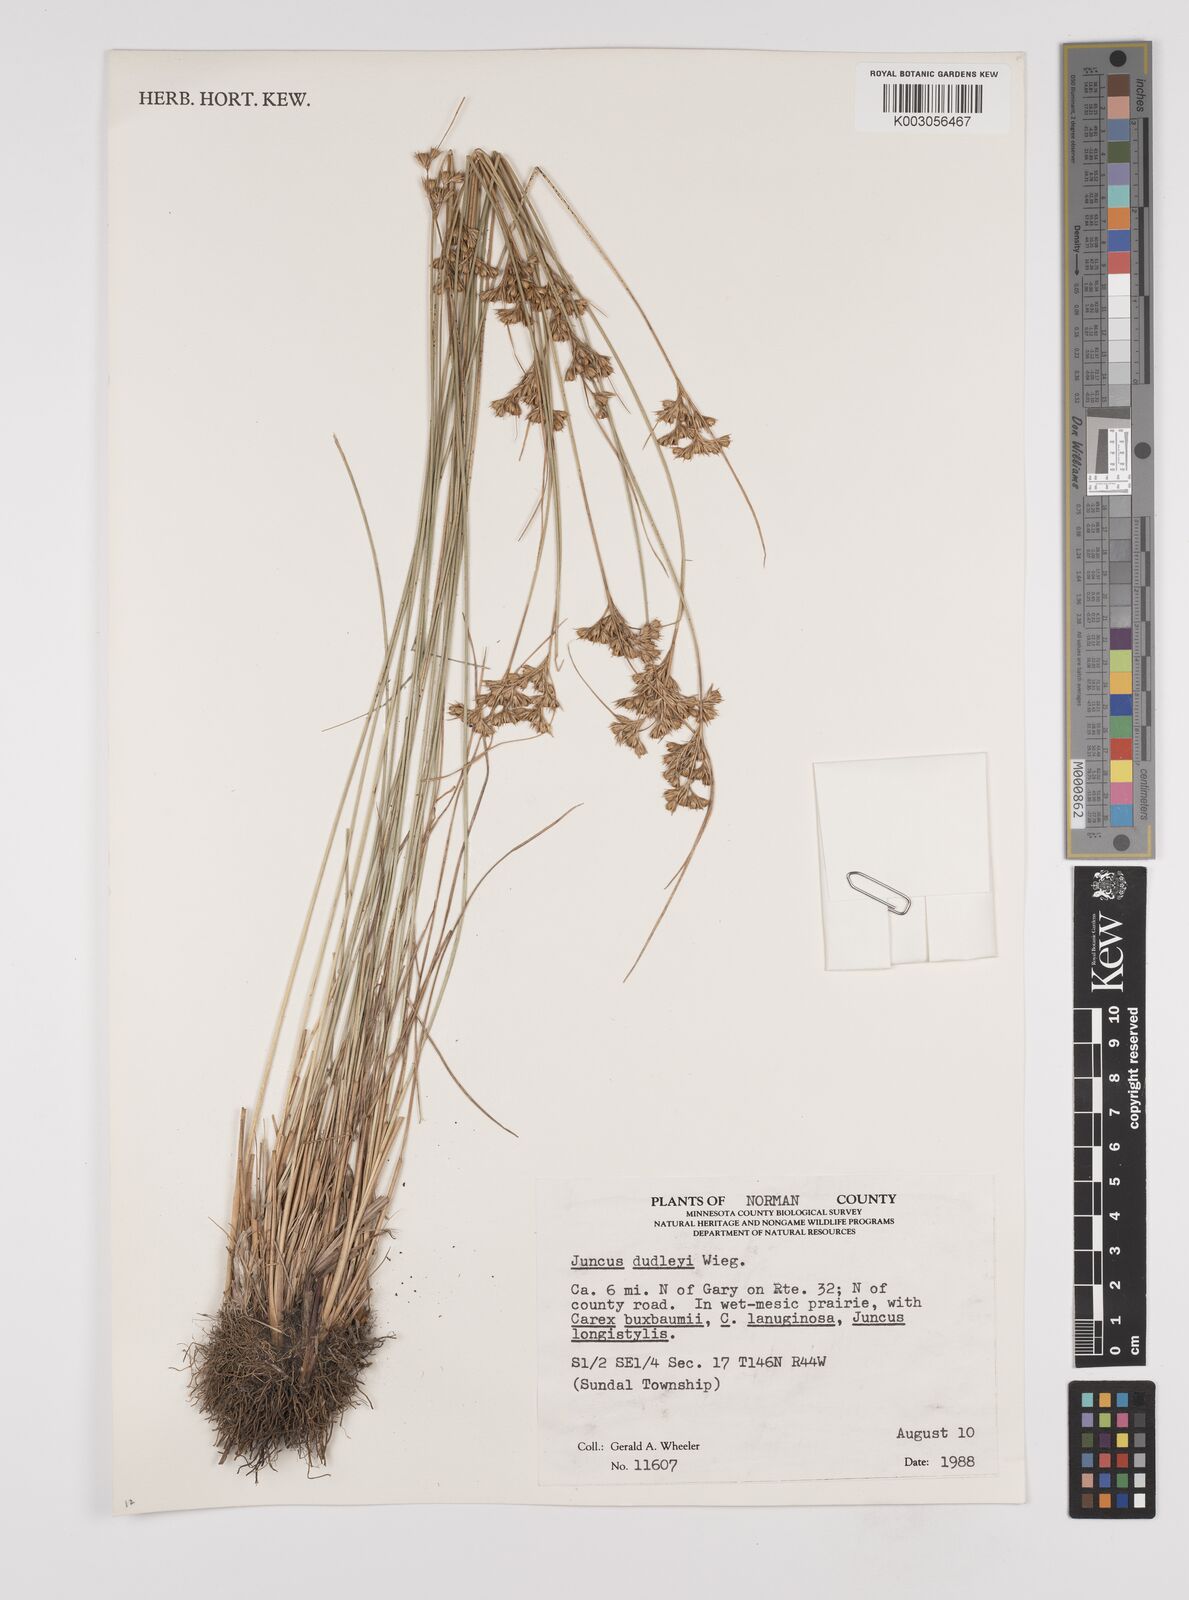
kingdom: Plantae
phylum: Tracheophyta
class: Liliopsida
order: Poales
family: Juncaceae
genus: Juncus
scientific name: Juncus dudleyi
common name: Dudley's rush
